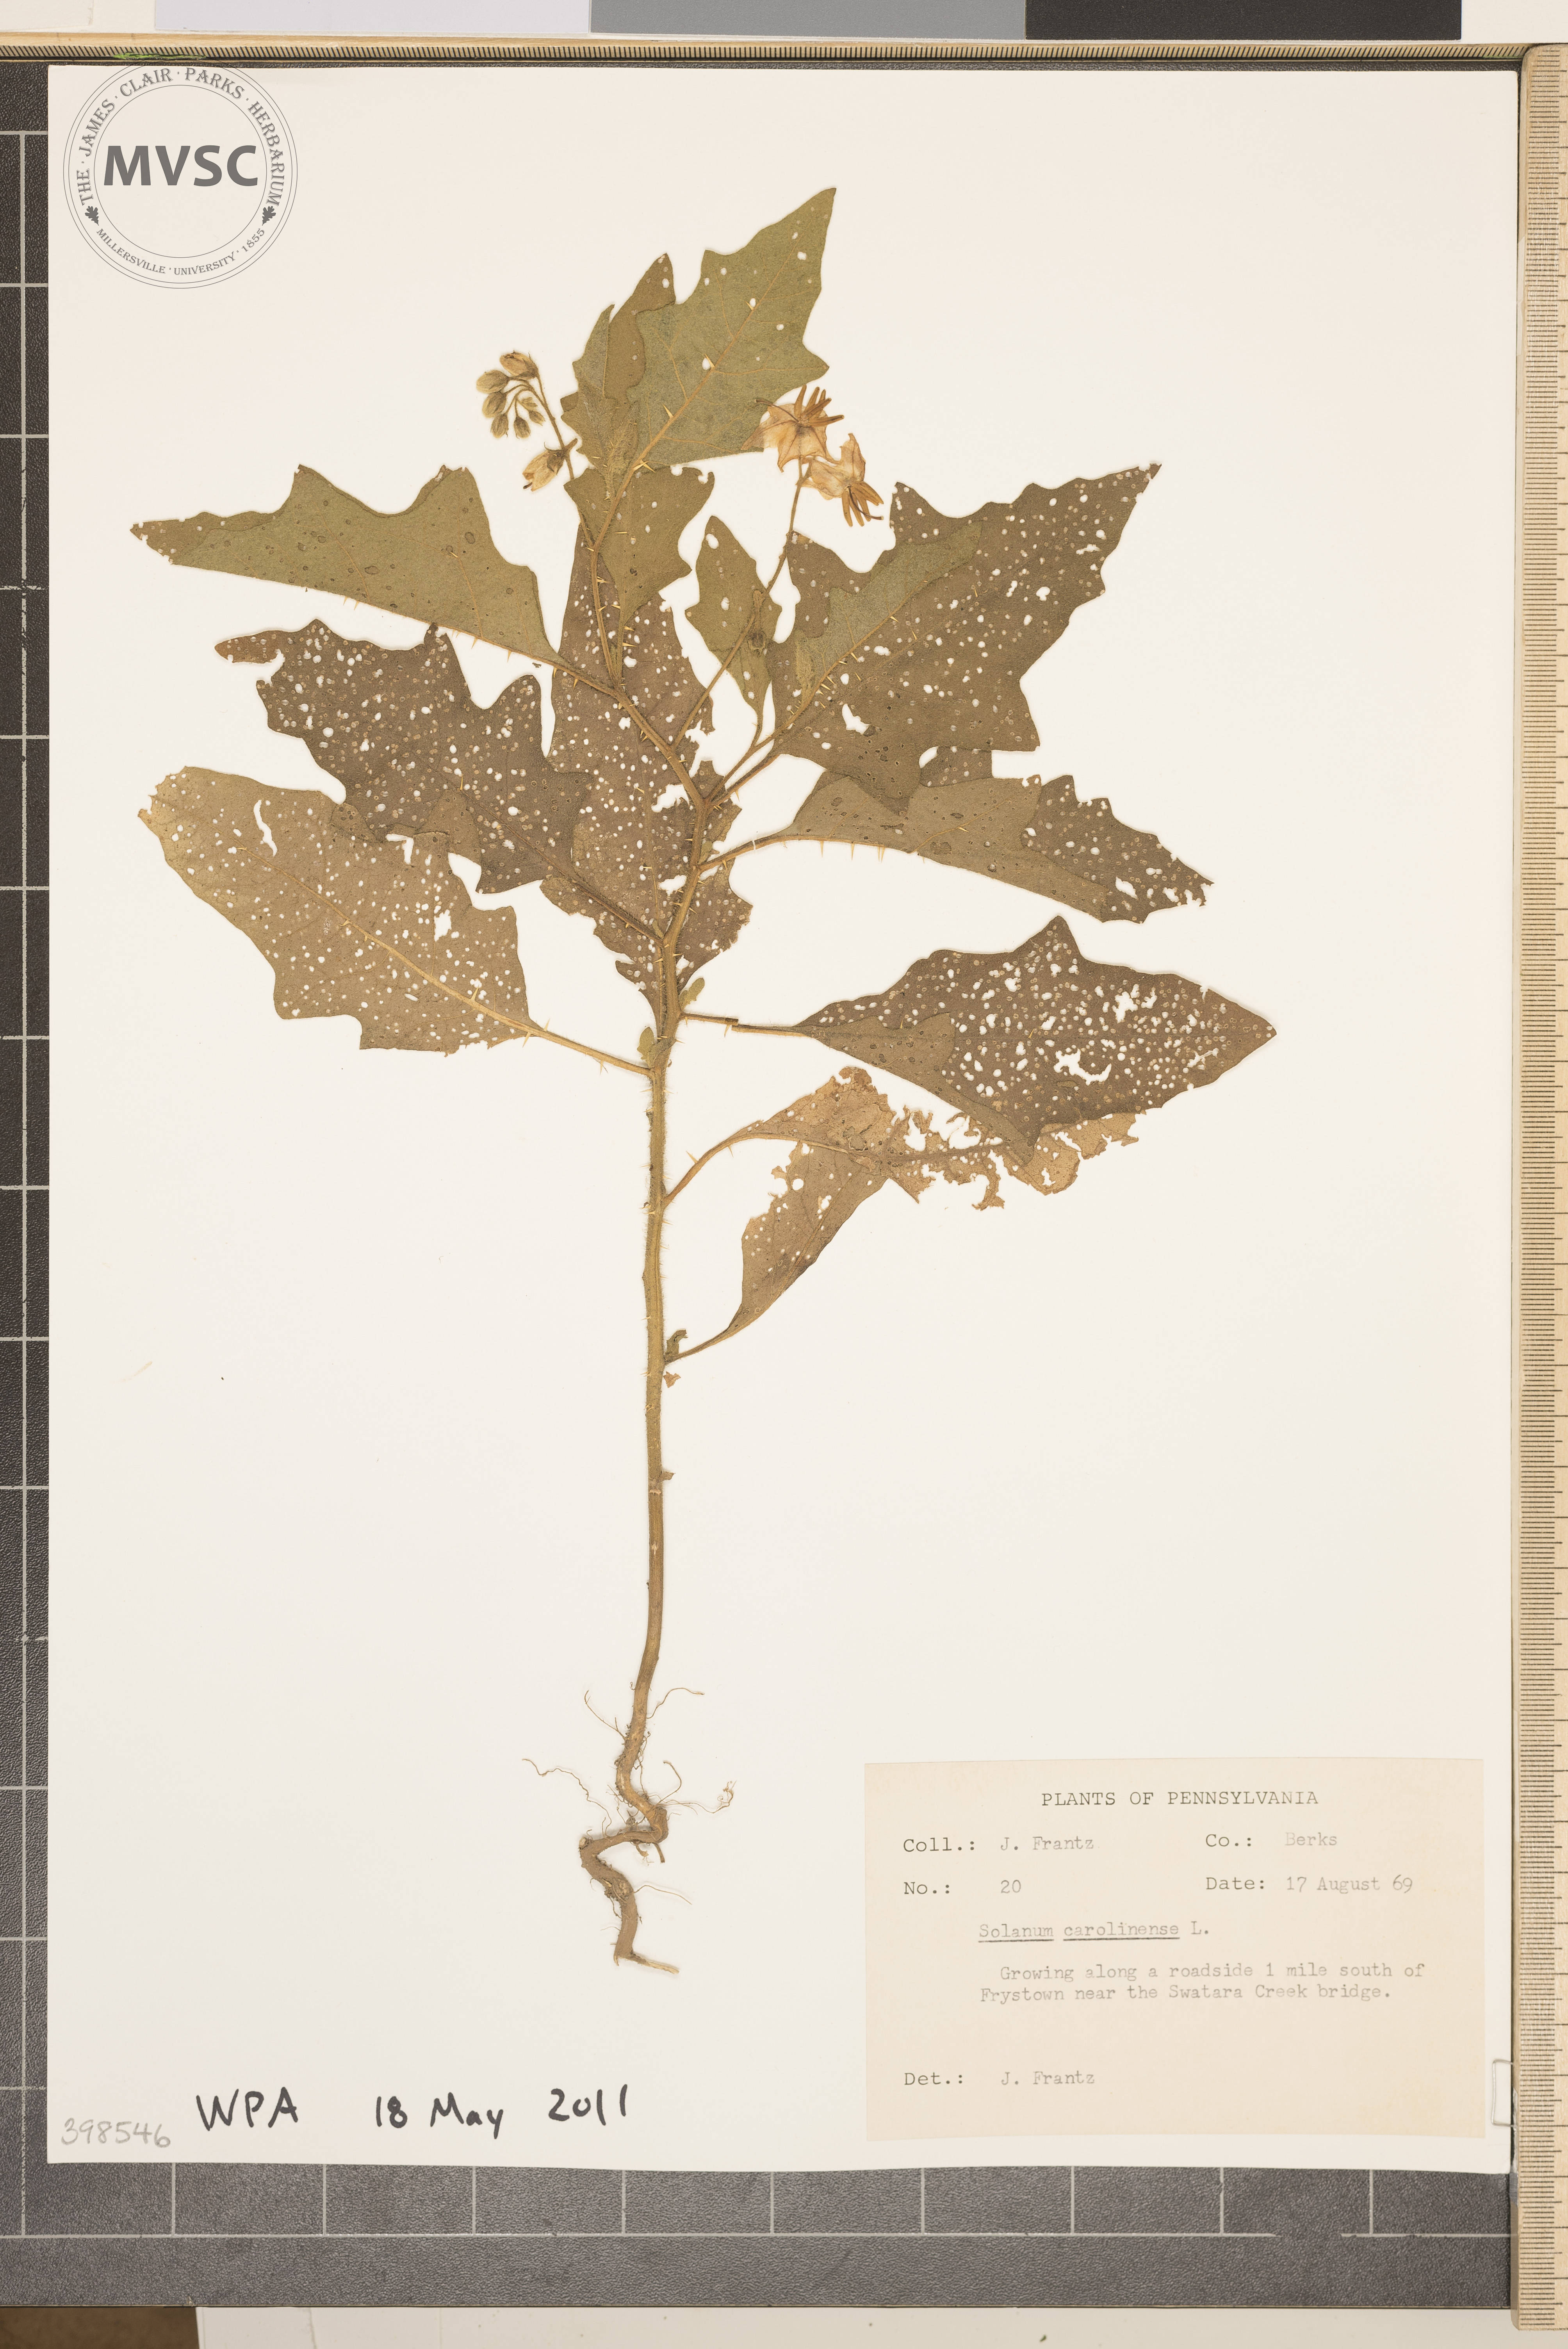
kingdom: Plantae
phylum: Tracheophyta
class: Magnoliopsida
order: Solanales
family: Solanaceae
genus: Solanum
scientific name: Solanum carolinense
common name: Horse-nettle
